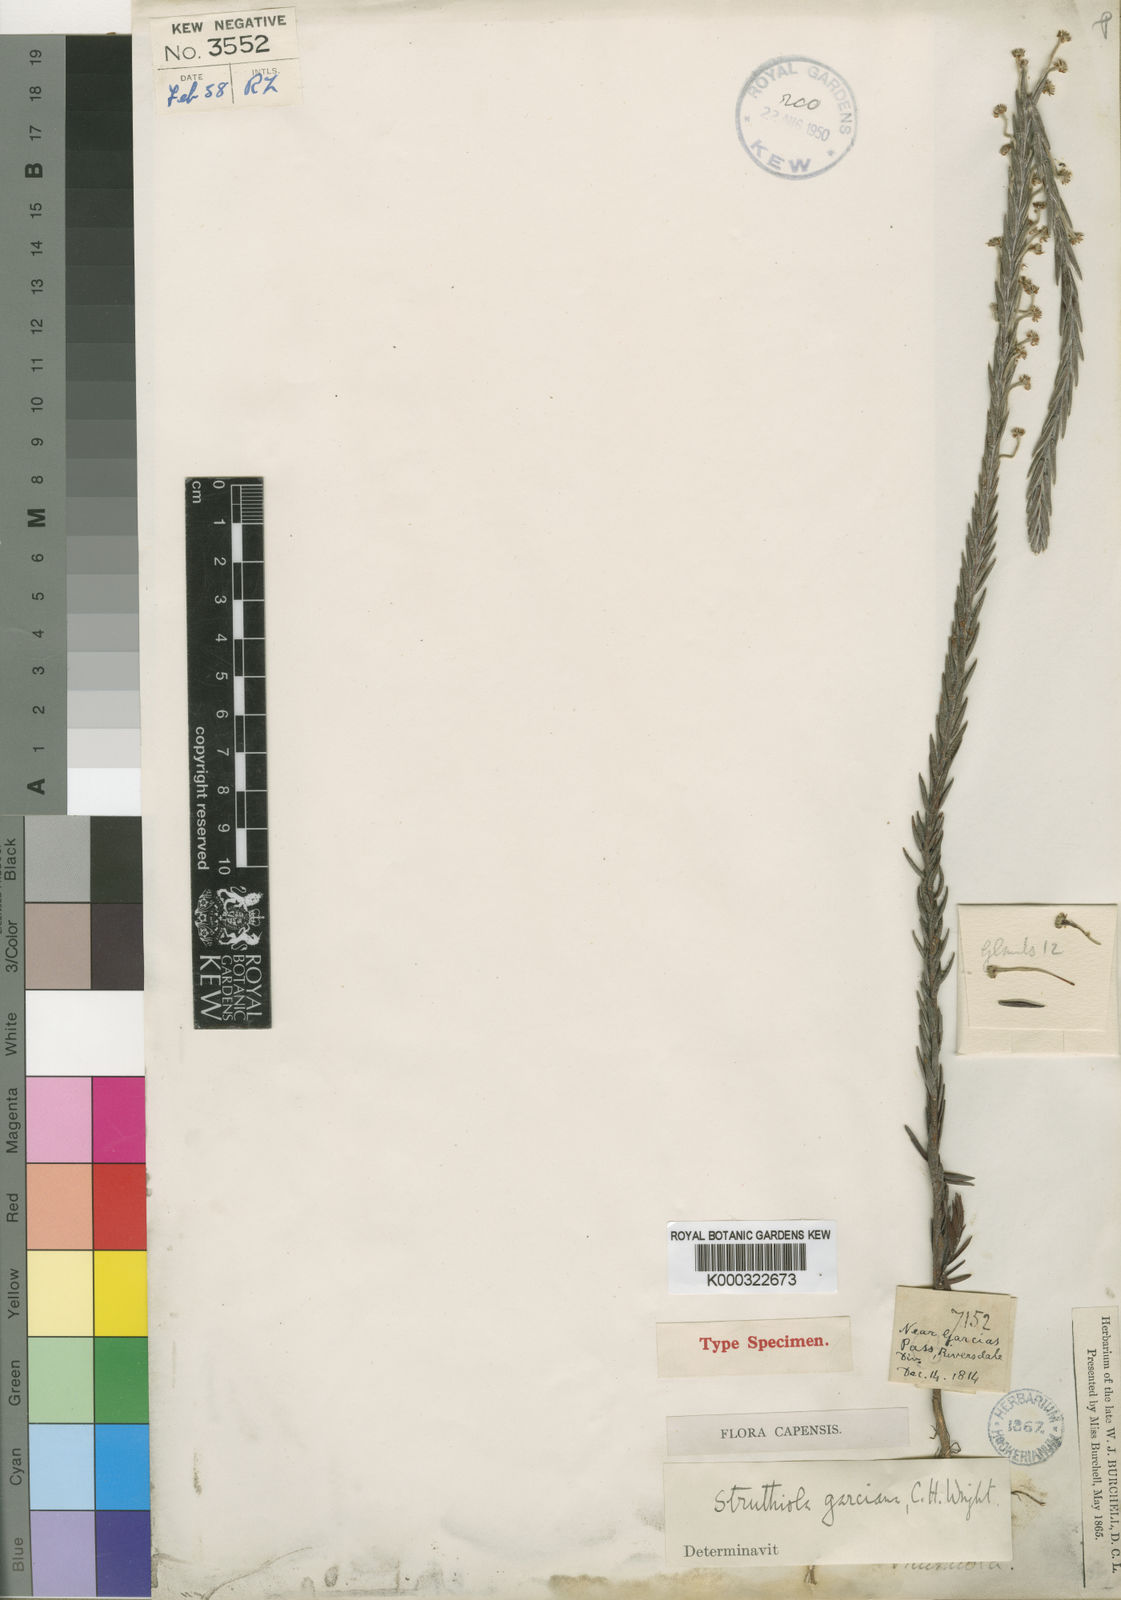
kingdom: Plantae
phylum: Tracheophyta
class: Magnoliopsida
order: Malvales
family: Thymelaeaceae
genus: Struthiola
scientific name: Struthiola garciana
